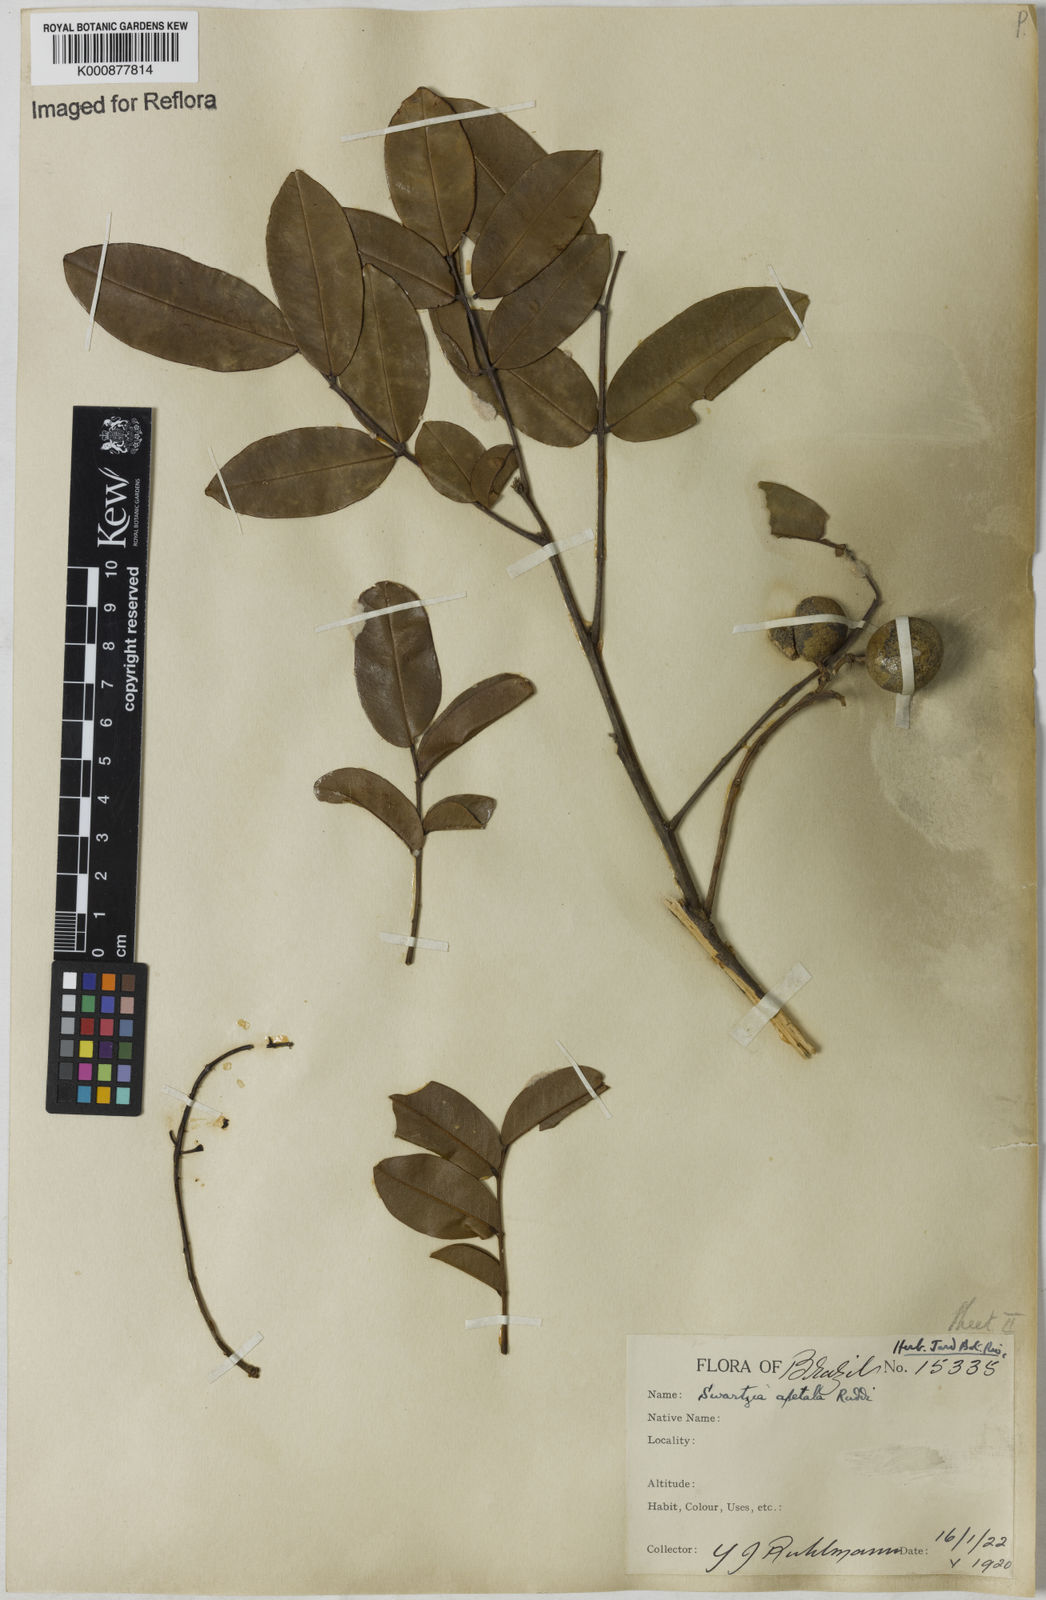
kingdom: Plantae
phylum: Tracheophyta
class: Magnoliopsida
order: Fabales
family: Fabaceae
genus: Swartzia
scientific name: Swartzia apetala
